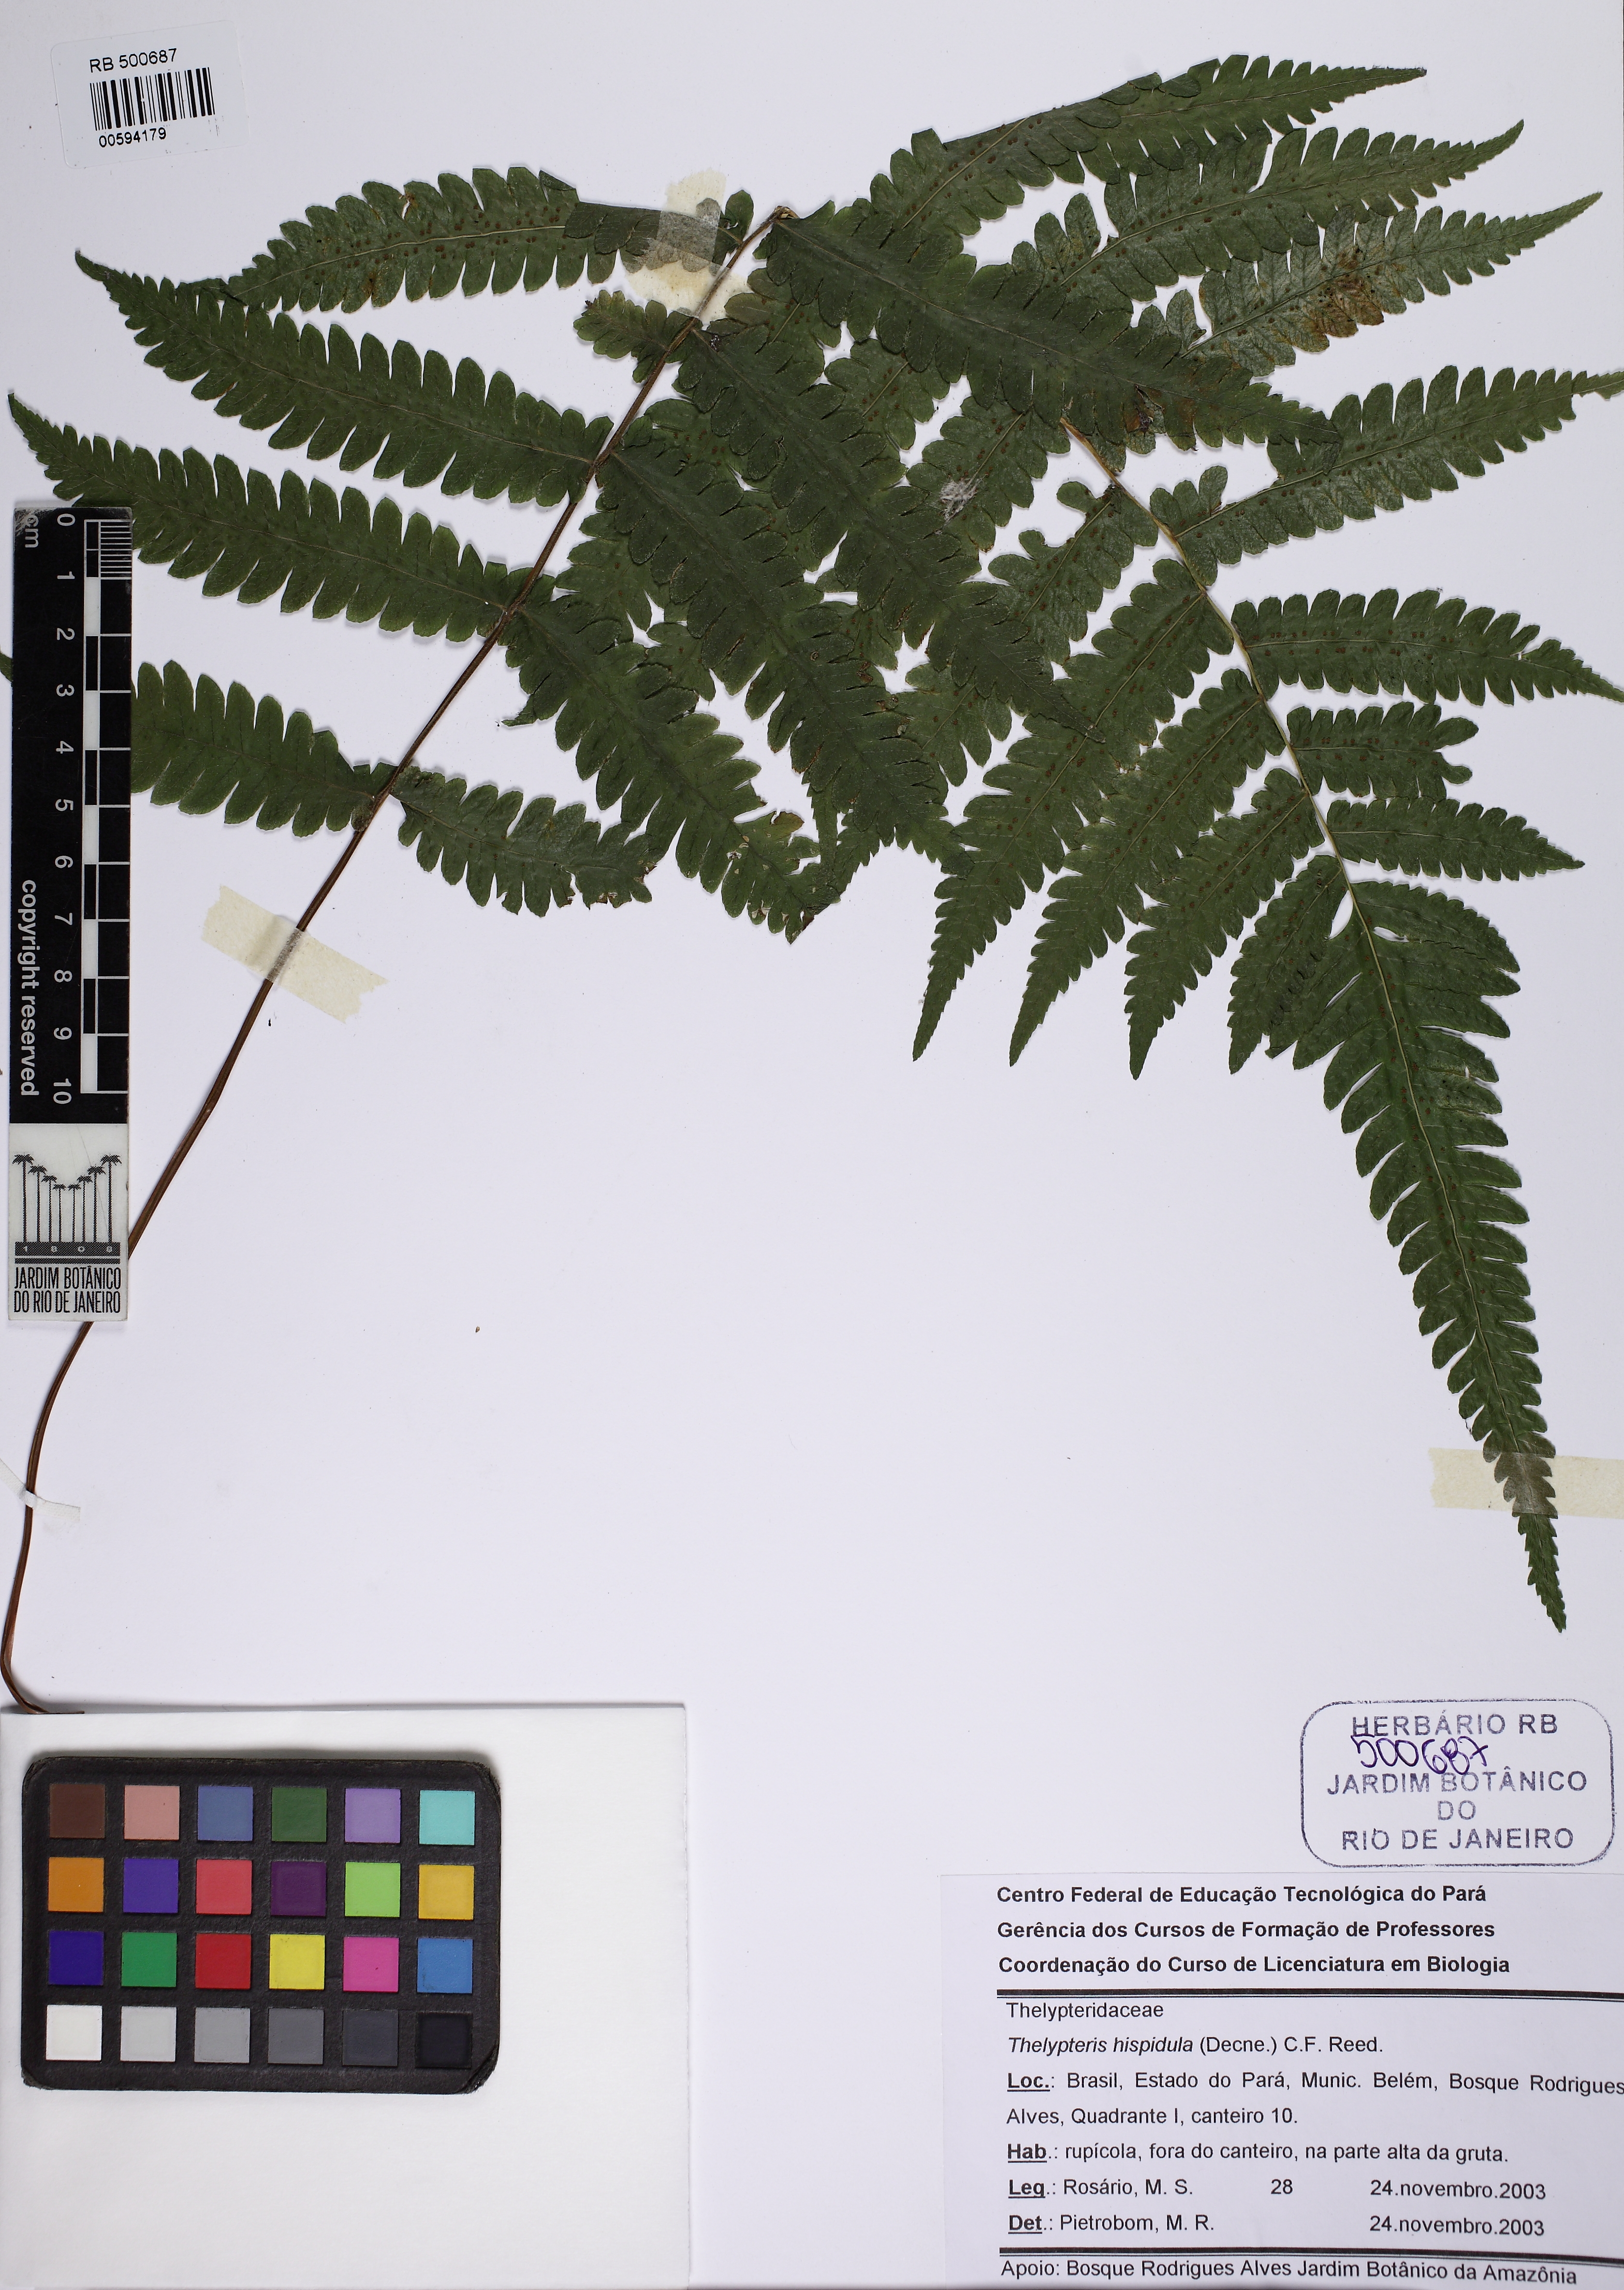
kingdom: Plantae
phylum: Tracheophyta
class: Polypodiopsida
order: Polypodiales
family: Thelypteridaceae
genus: Christella
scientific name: Christella hispidula
